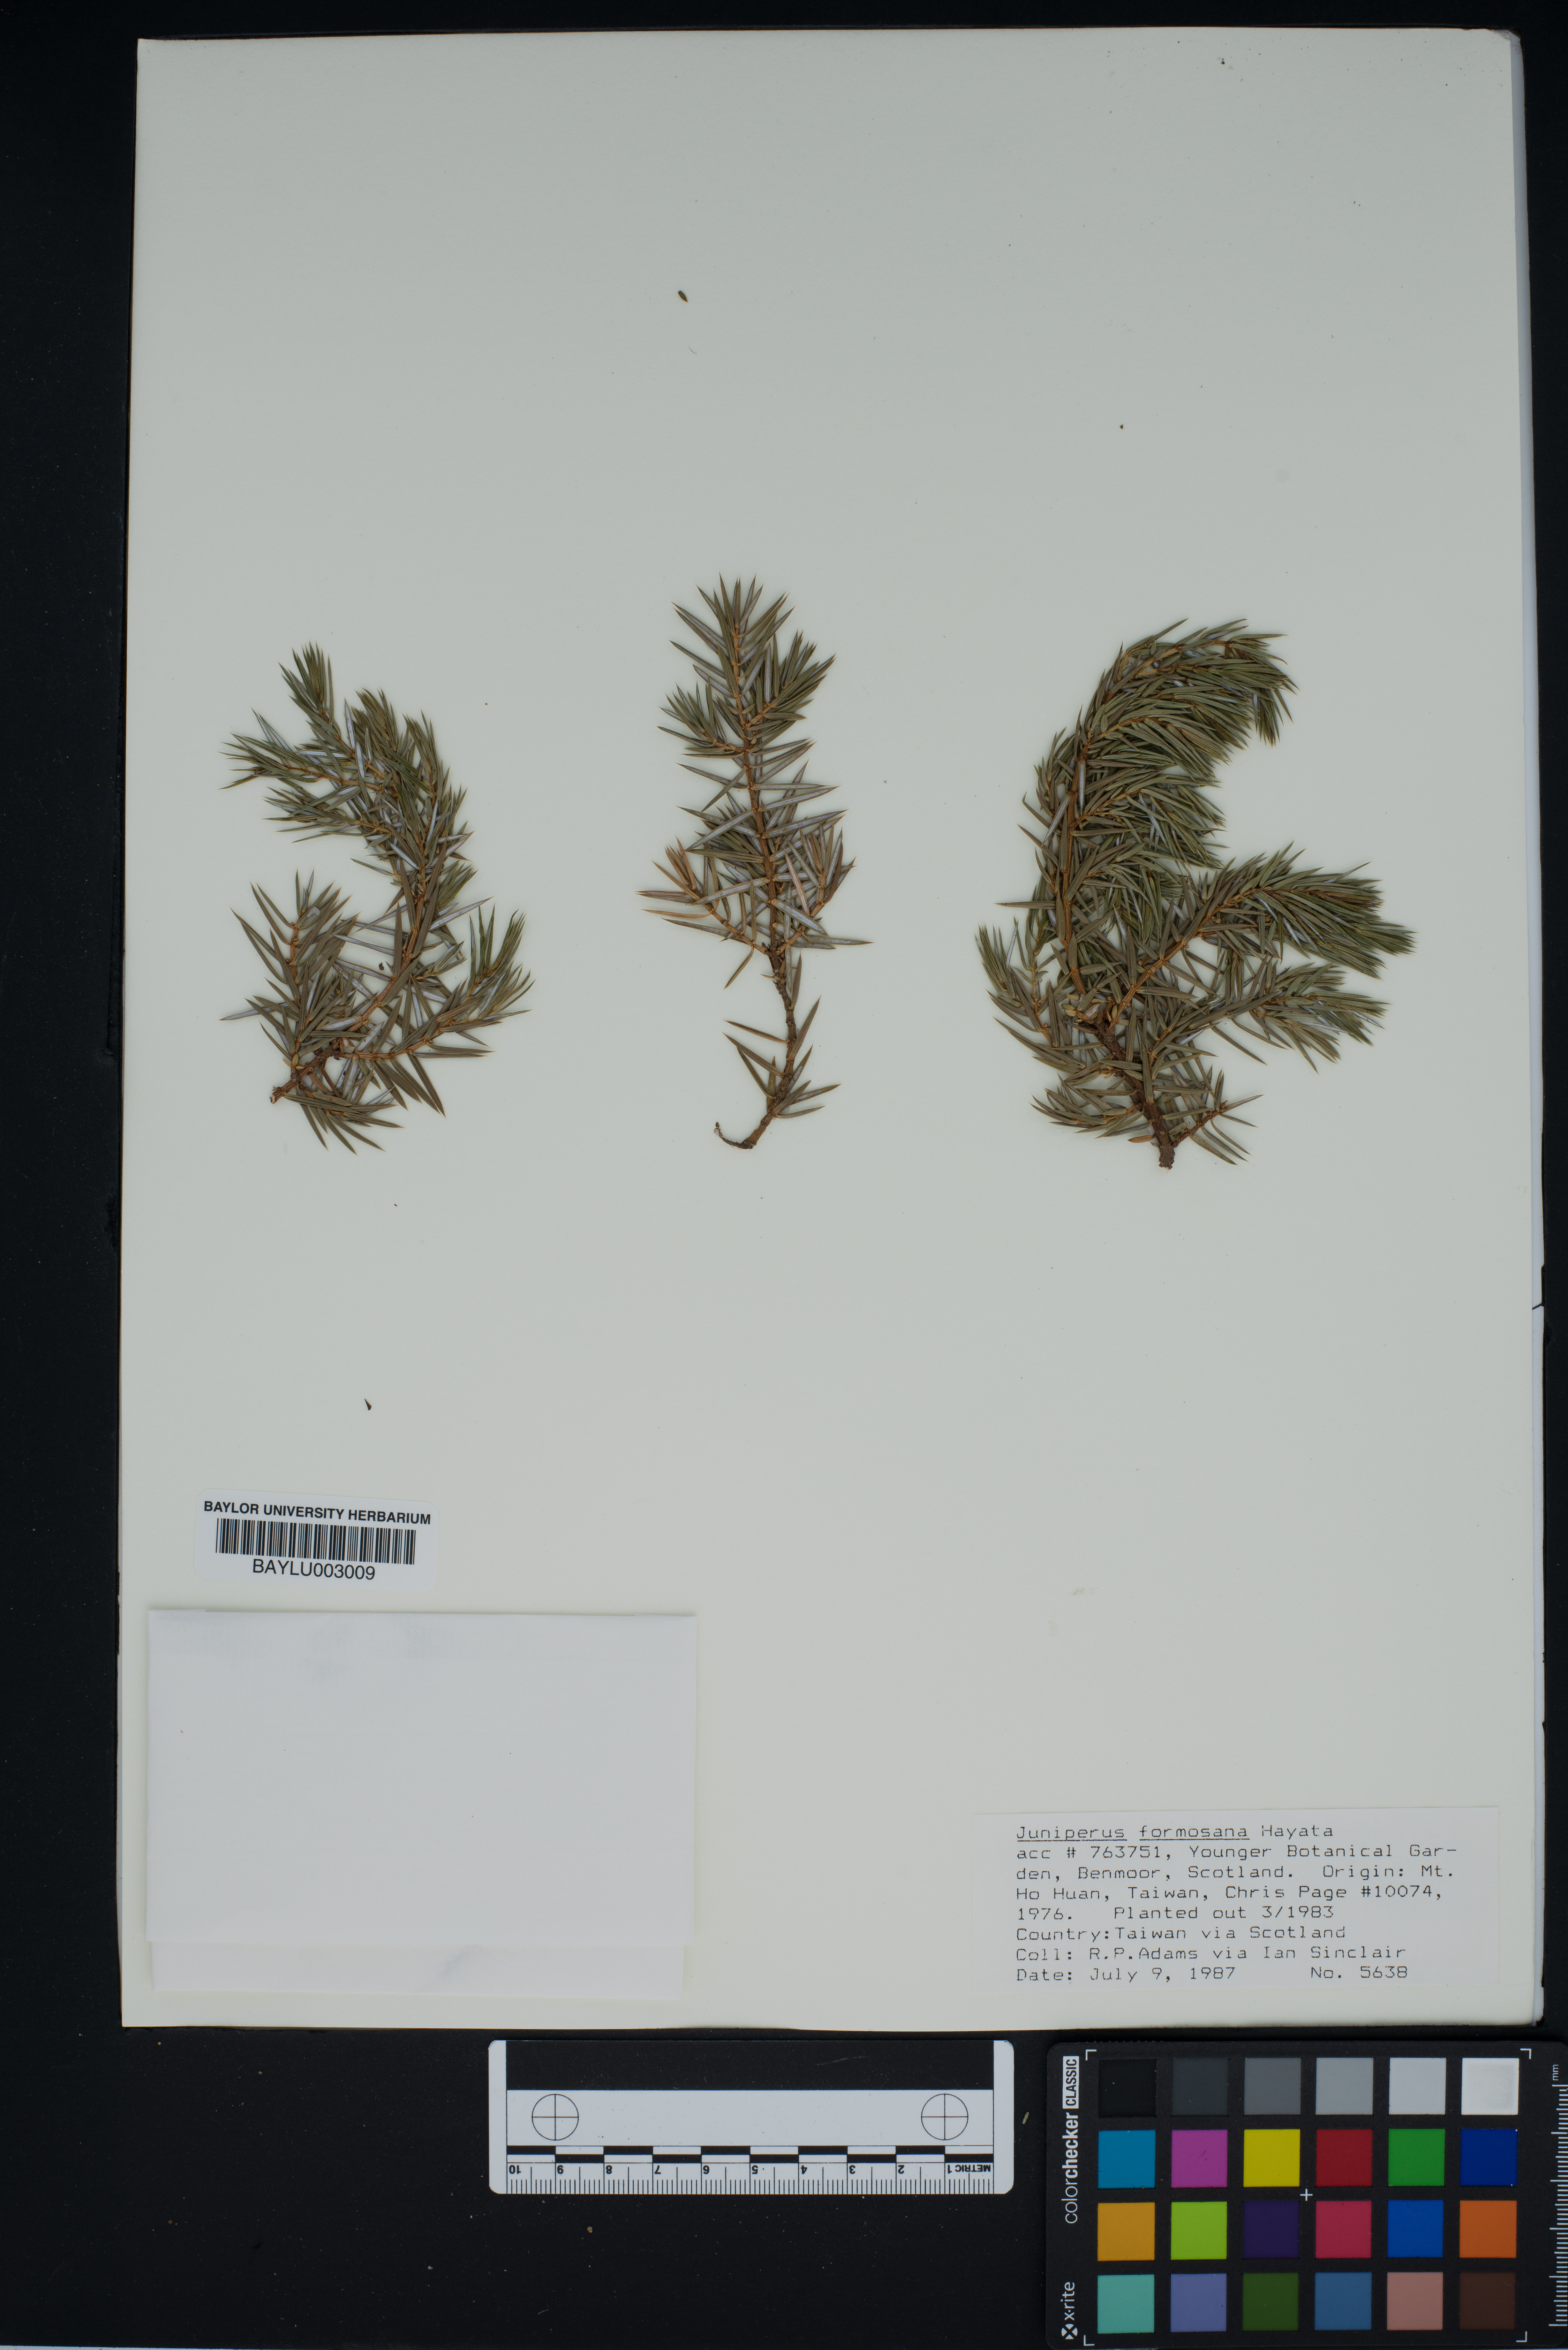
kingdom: Plantae
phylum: Tracheophyta
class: Pinopsida
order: Pinales
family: Cupressaceae
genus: Juniperus
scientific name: Juniperus formosana
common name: Formosan juniper
